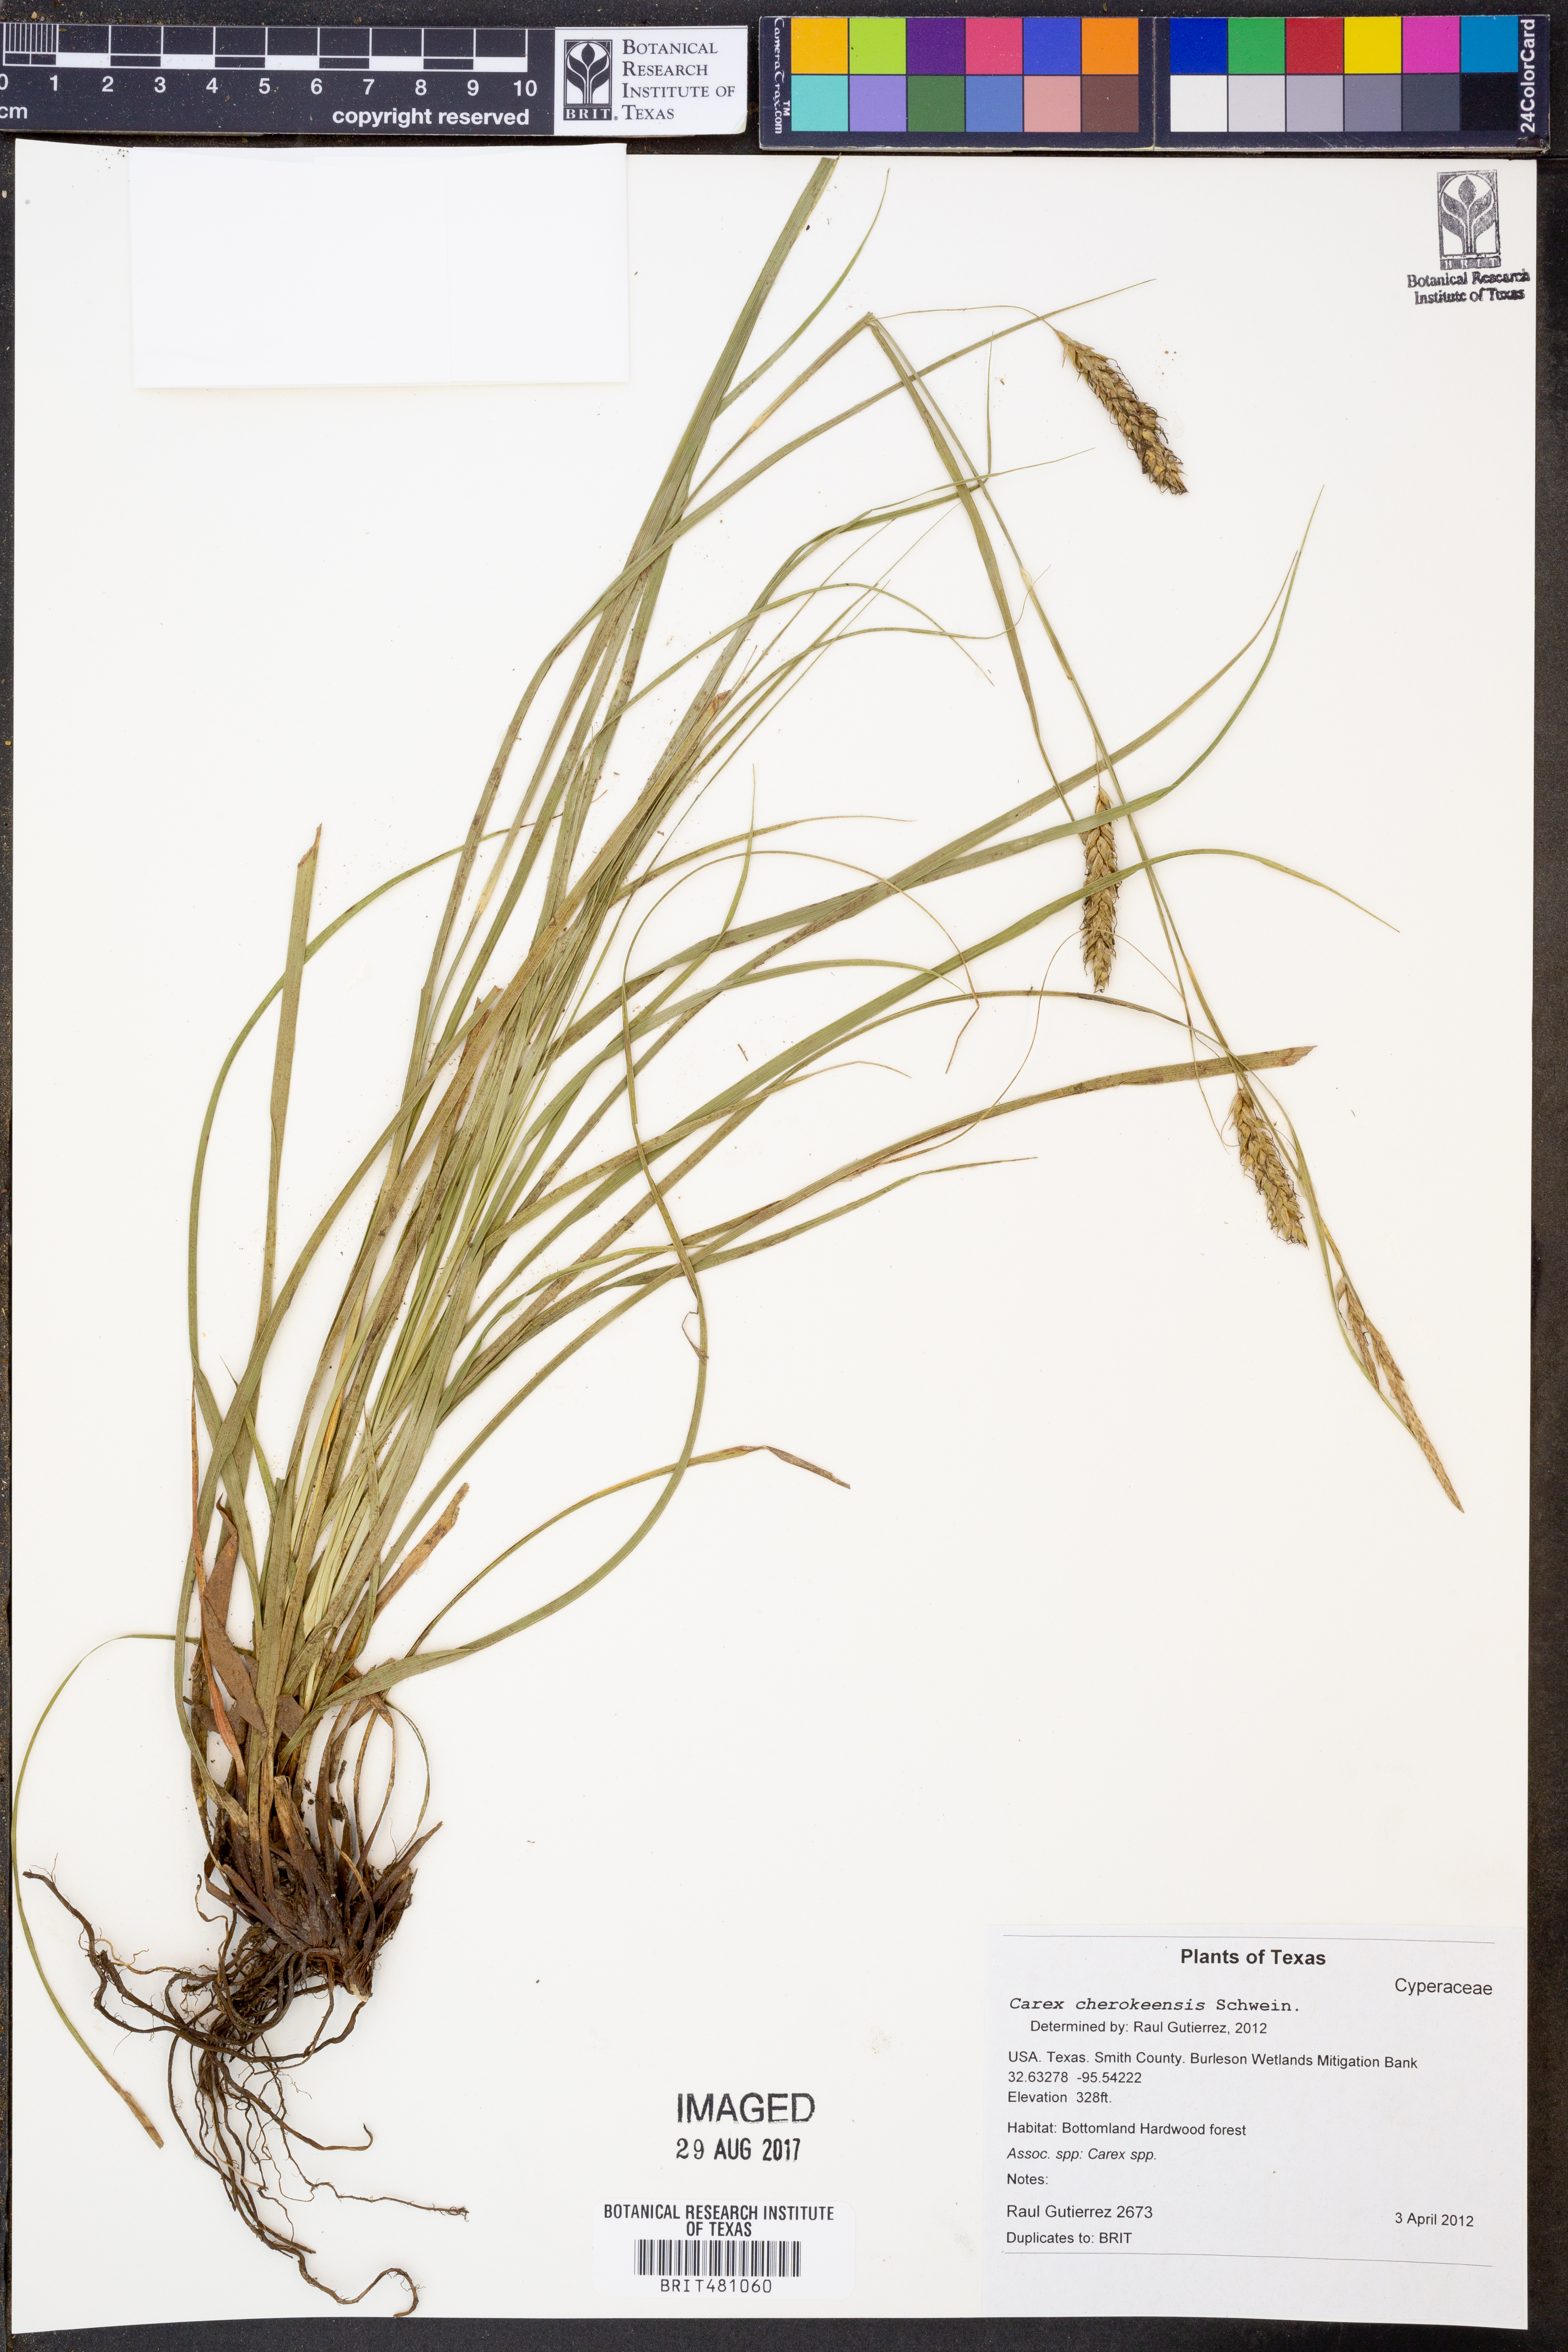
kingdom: Plantae
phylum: Tracheophyta
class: Liliopsida
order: Poales
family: Cyperaceae
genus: Carex
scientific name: Carex cherokeensis
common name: Cherokee sedge
